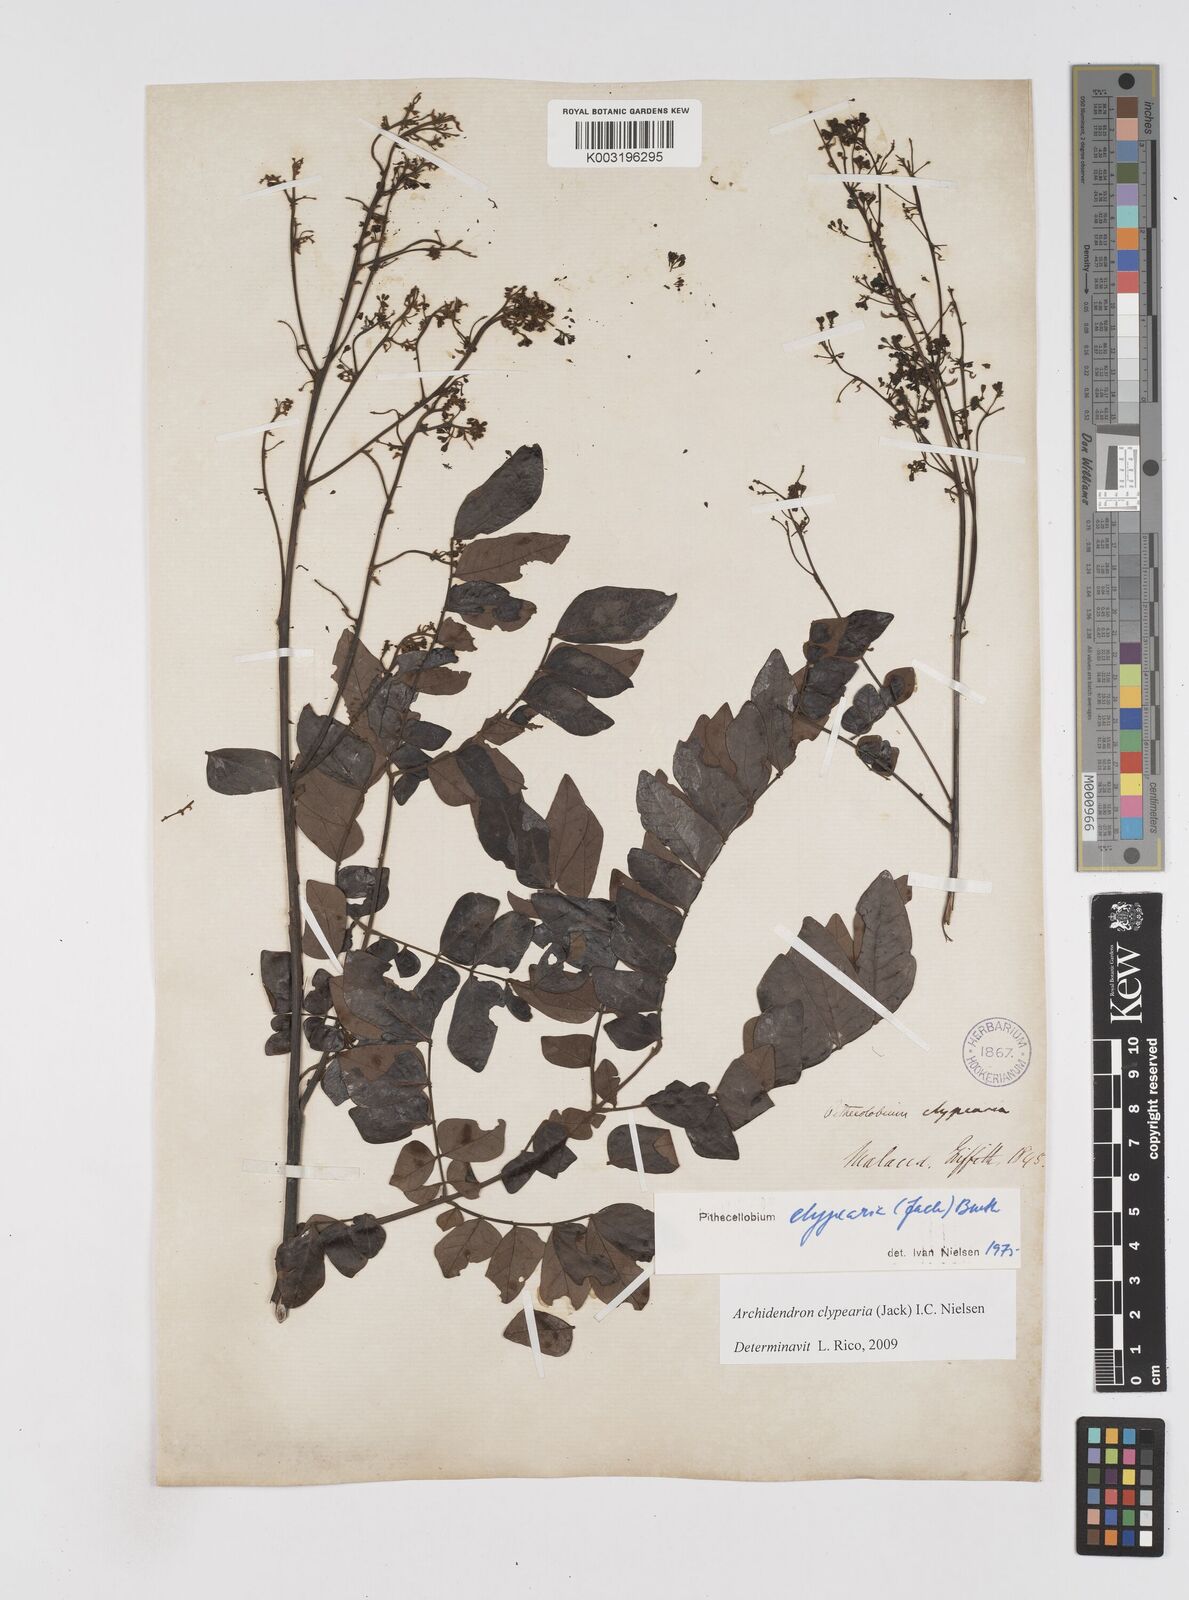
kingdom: Plantae
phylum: Tracheophyta
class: Magnoliopsida
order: Fabales
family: Fabaceae
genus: Archidendron
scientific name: Archidendron clypearia
